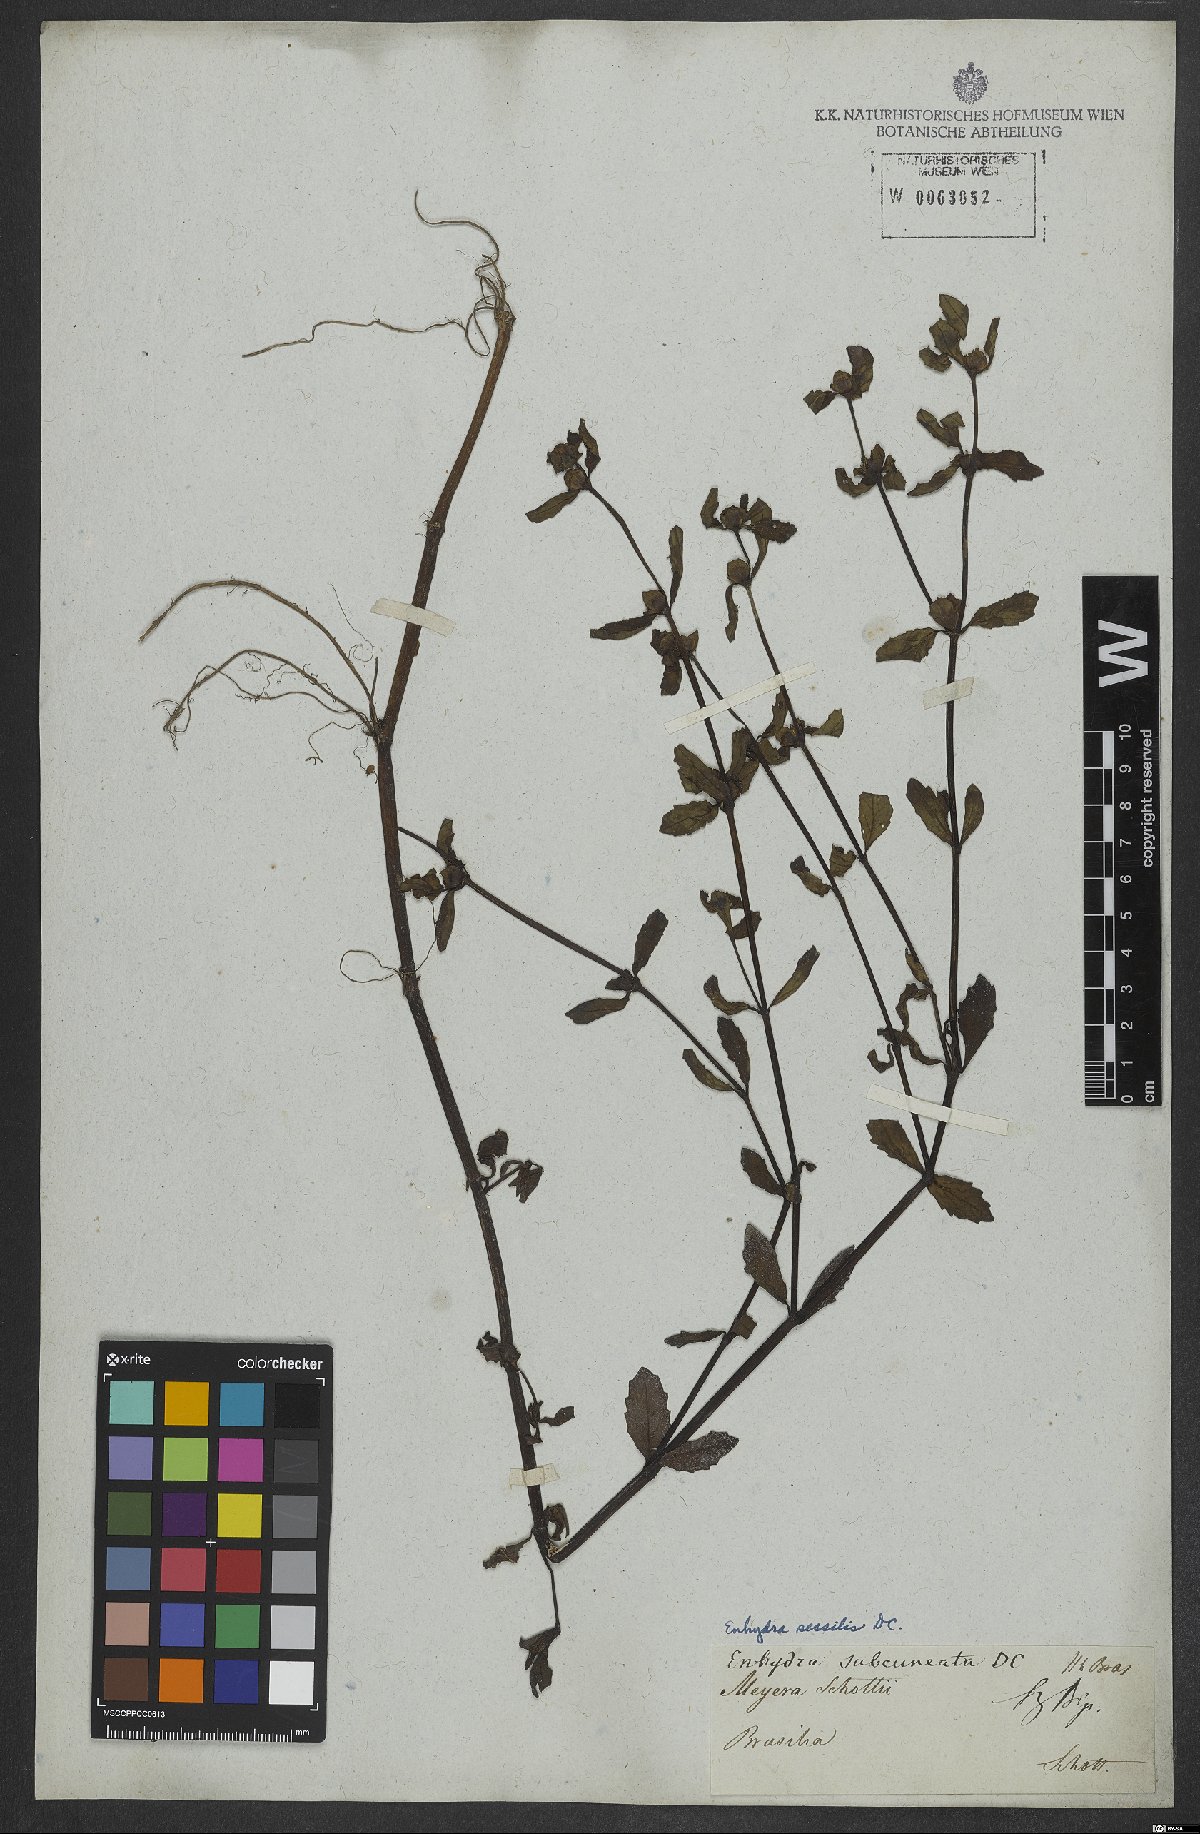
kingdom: Plantae
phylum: Tracheophyta
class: Magnoliopsida
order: Asterales
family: Asteraceae
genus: Enydra
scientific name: Enydra sessilis
